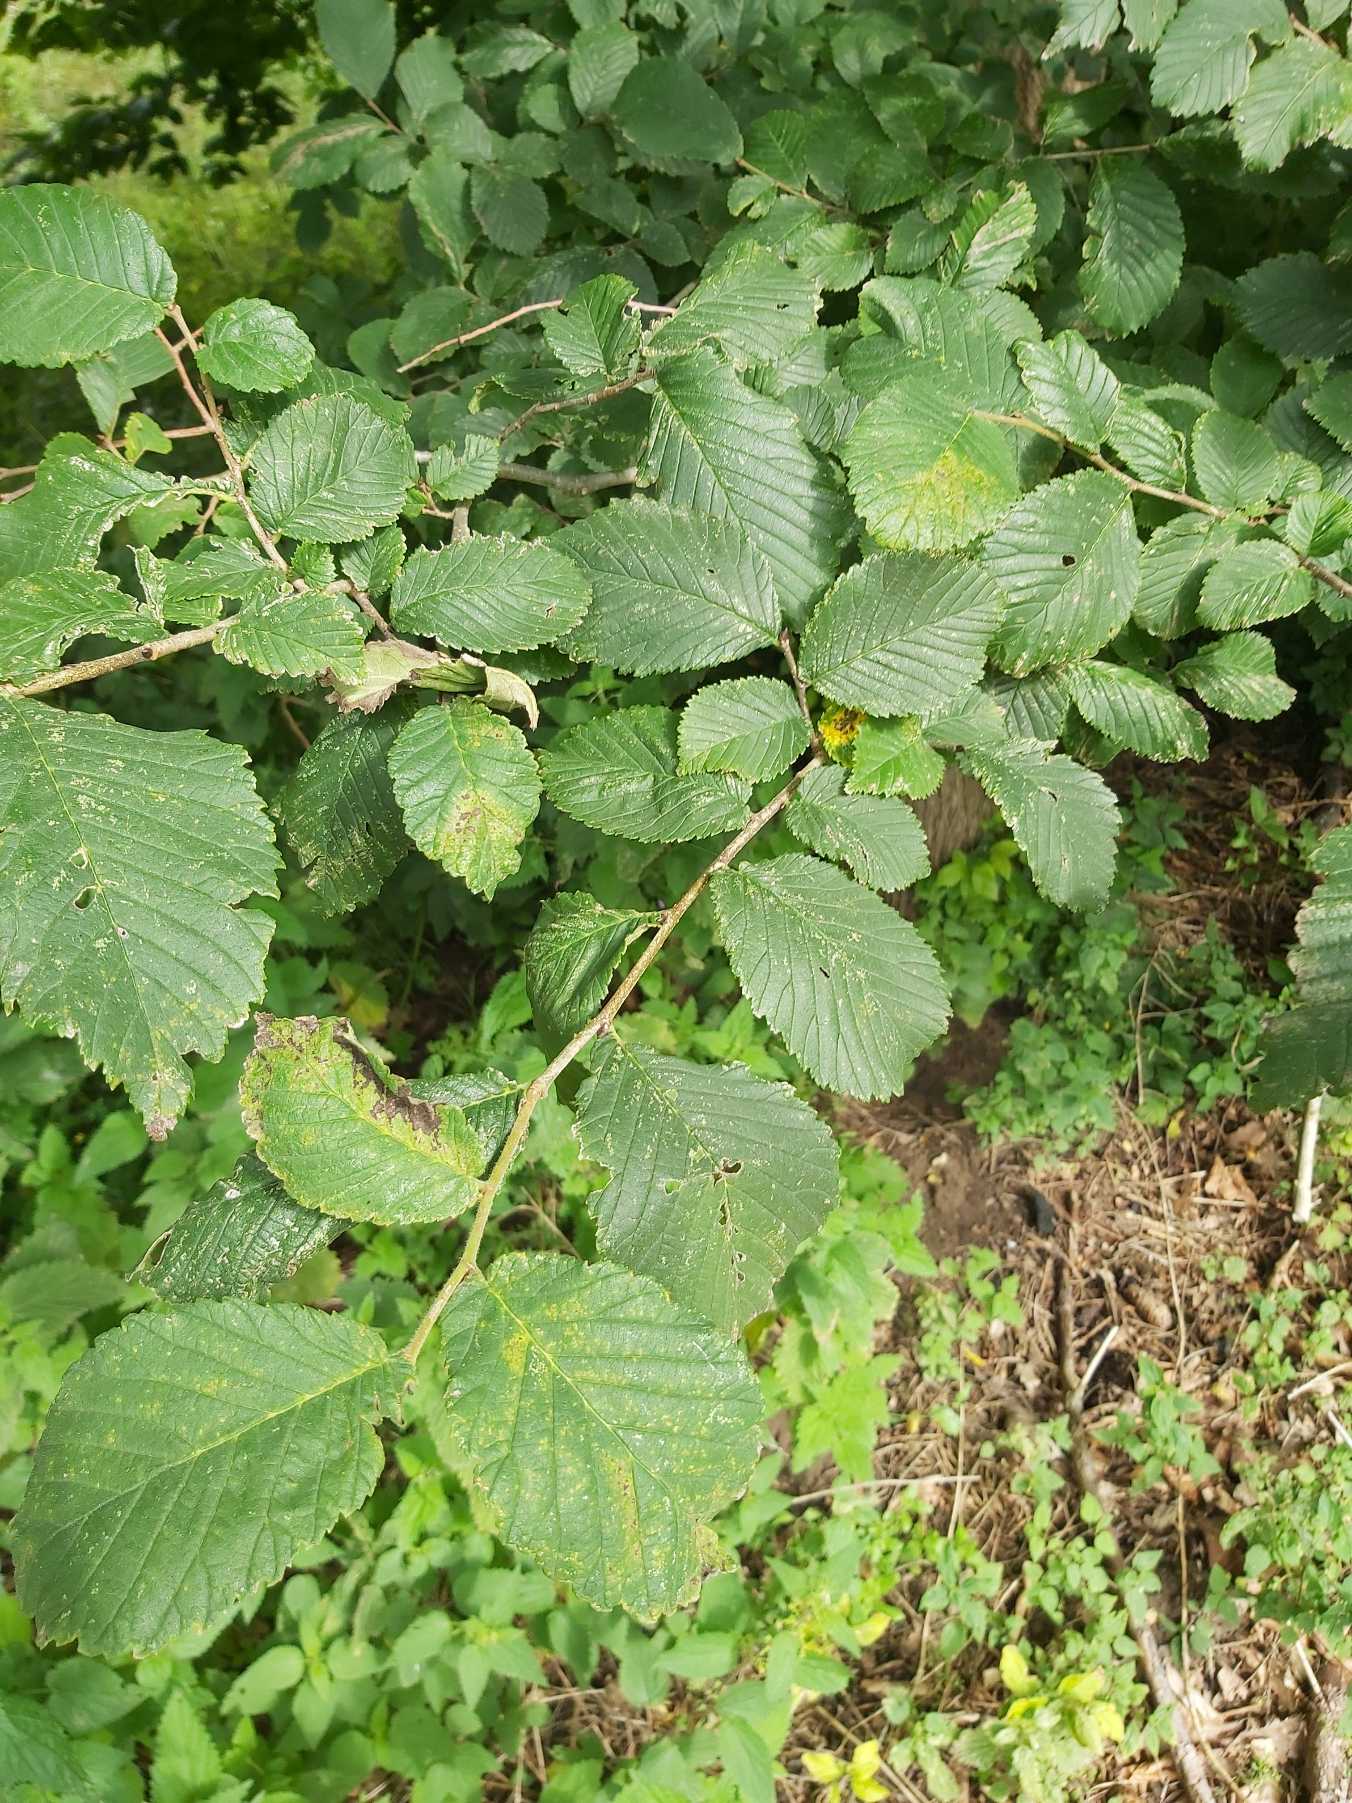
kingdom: Plantae
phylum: Tracheophyta
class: Magnoliopsida
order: Rosales
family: Ulmaceae
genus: Ulmus
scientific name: Ulmus glabra
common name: Skov-elm/storbladet elm
